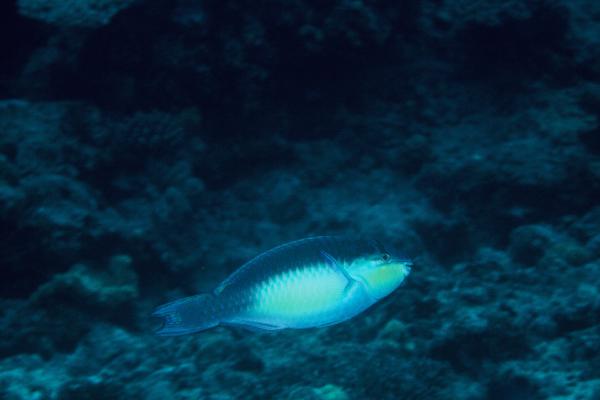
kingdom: Animalia
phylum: Chordata
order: Perciformes
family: Scaridae
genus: Scarus
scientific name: Scarus chameleon
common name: Chameleon parrotfish
